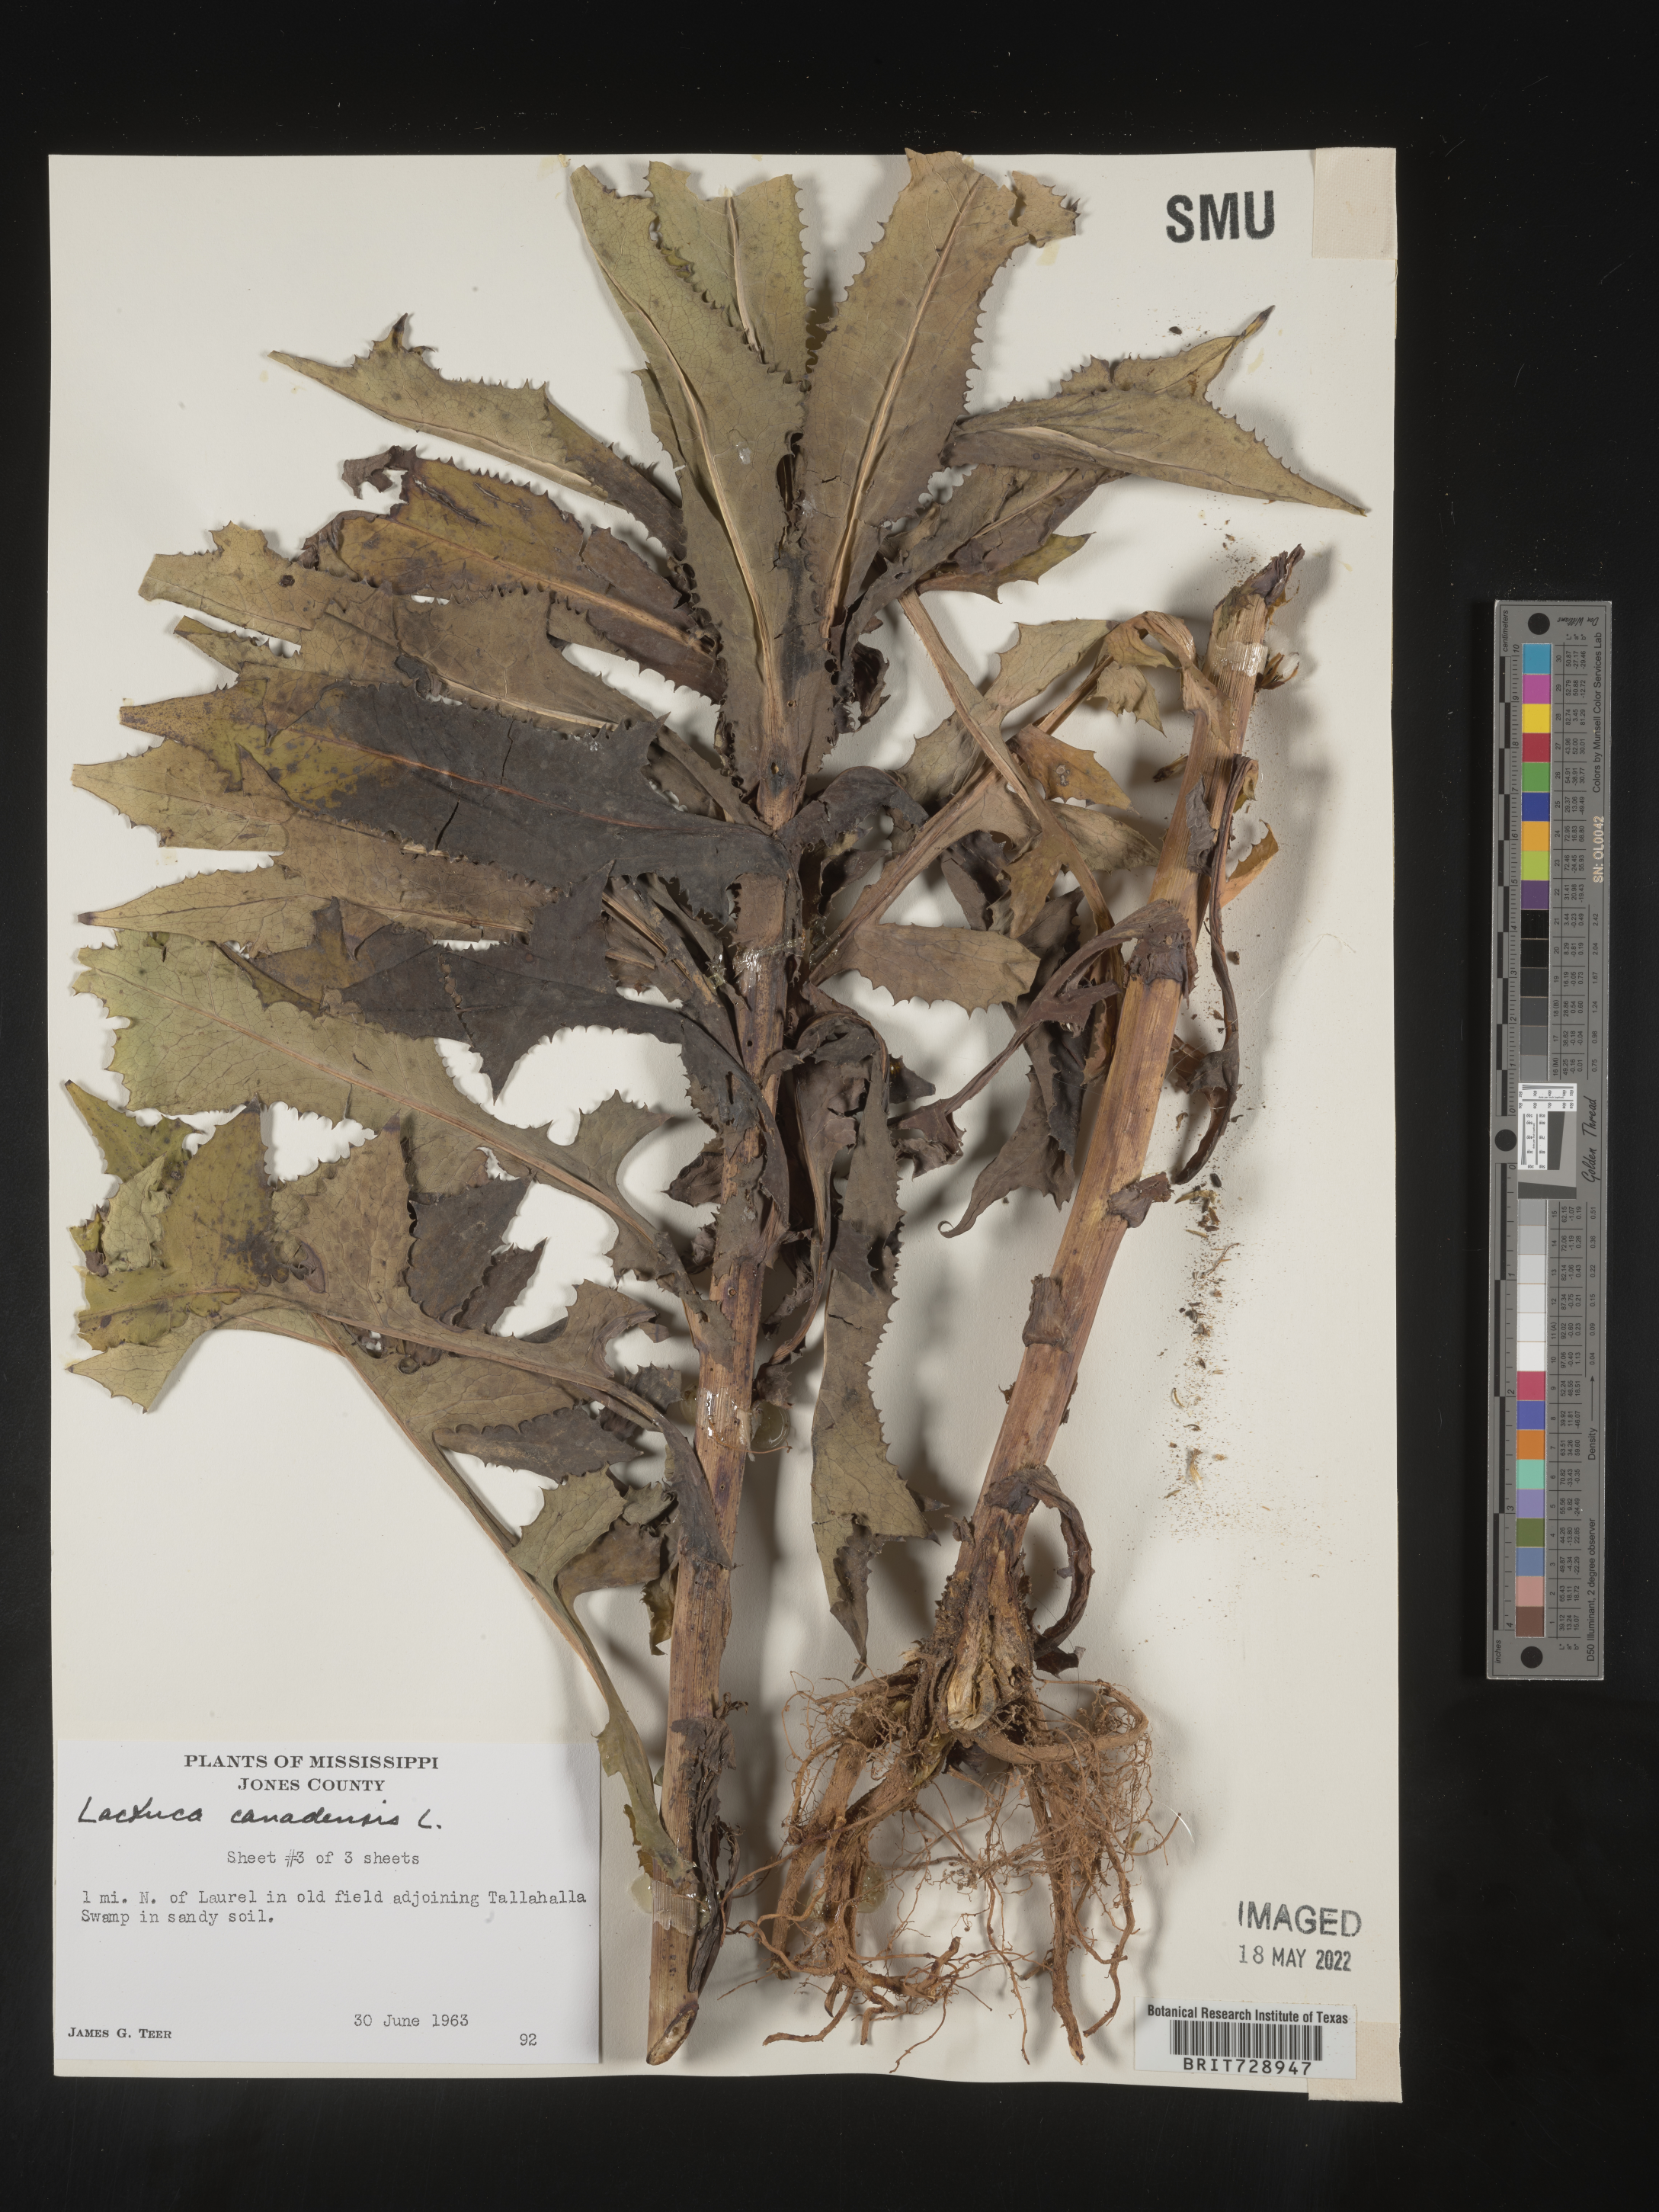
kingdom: Plantae
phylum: Tracheophyta
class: Magnoliopsida
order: Asterales
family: Asteraceae
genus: Lactuca
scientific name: Lactuca canadensis
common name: Canada lettuce
